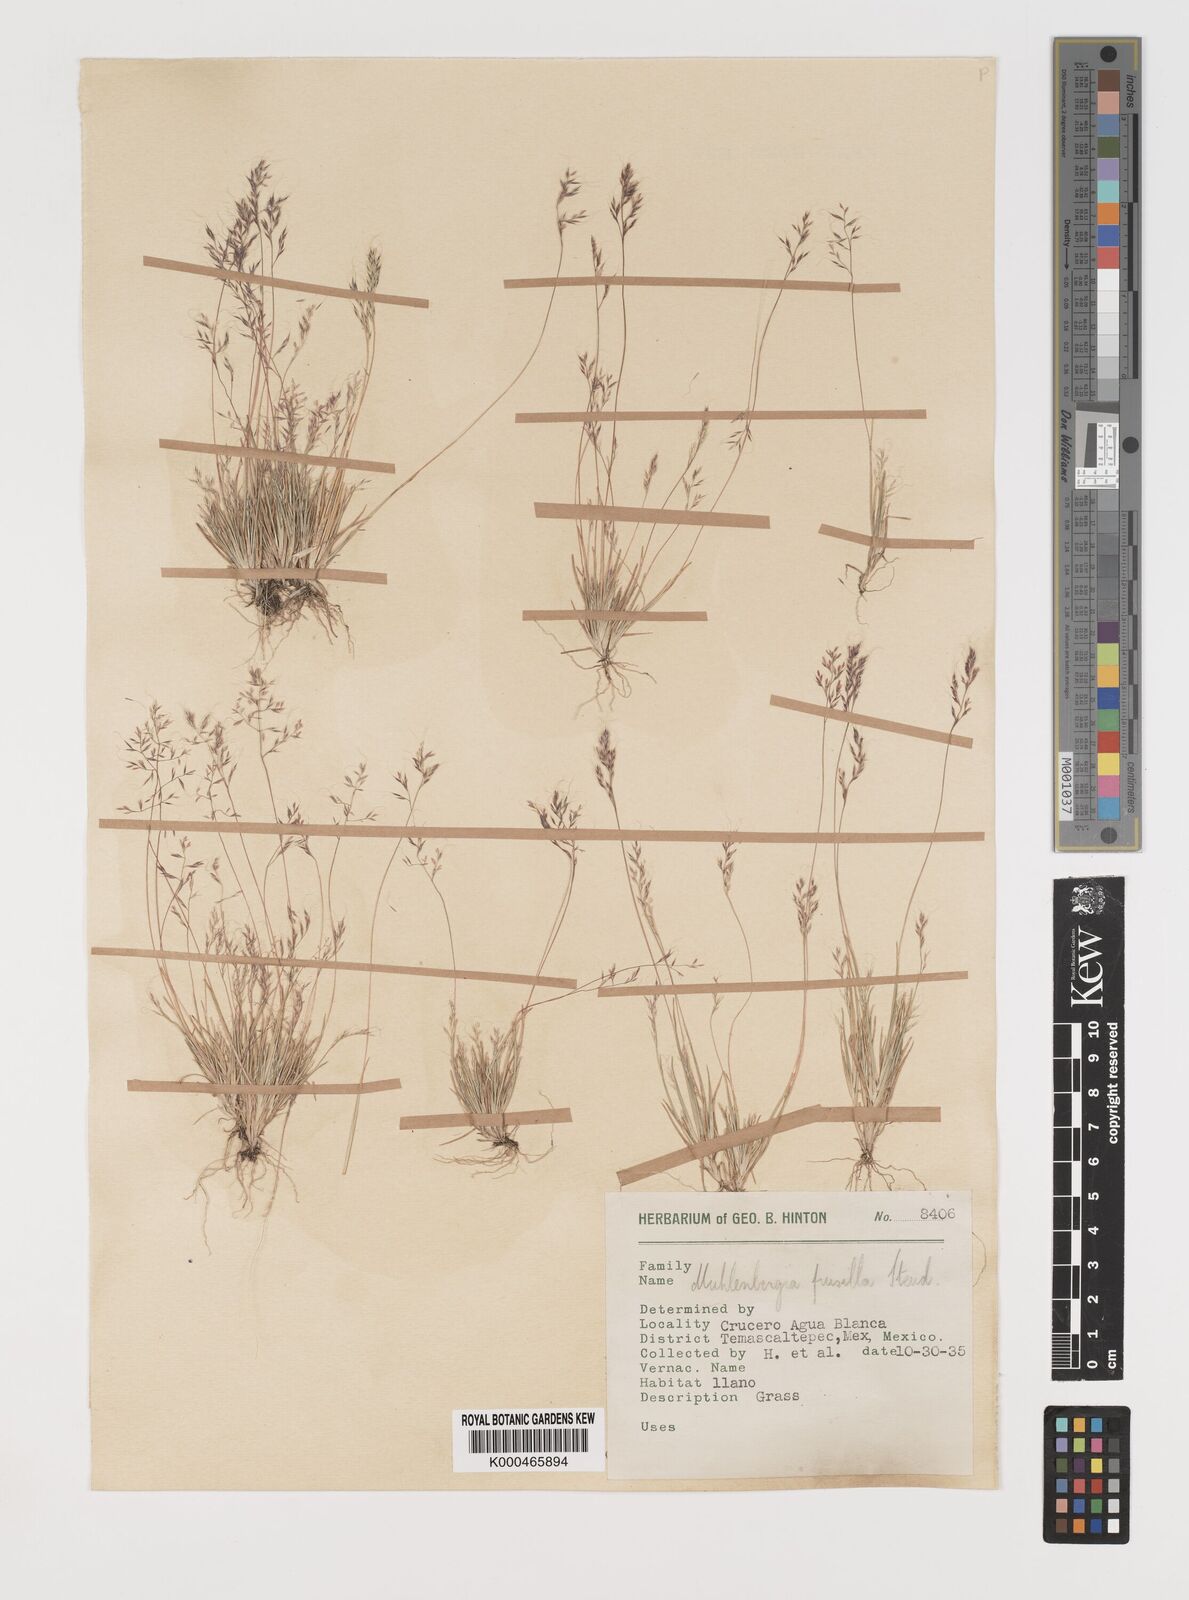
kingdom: Plantae
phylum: Tracheophyta
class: Liliopsida
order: Poales
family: Poaceae
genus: Muhlenbergia
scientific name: Muhlenbergia peruviana
